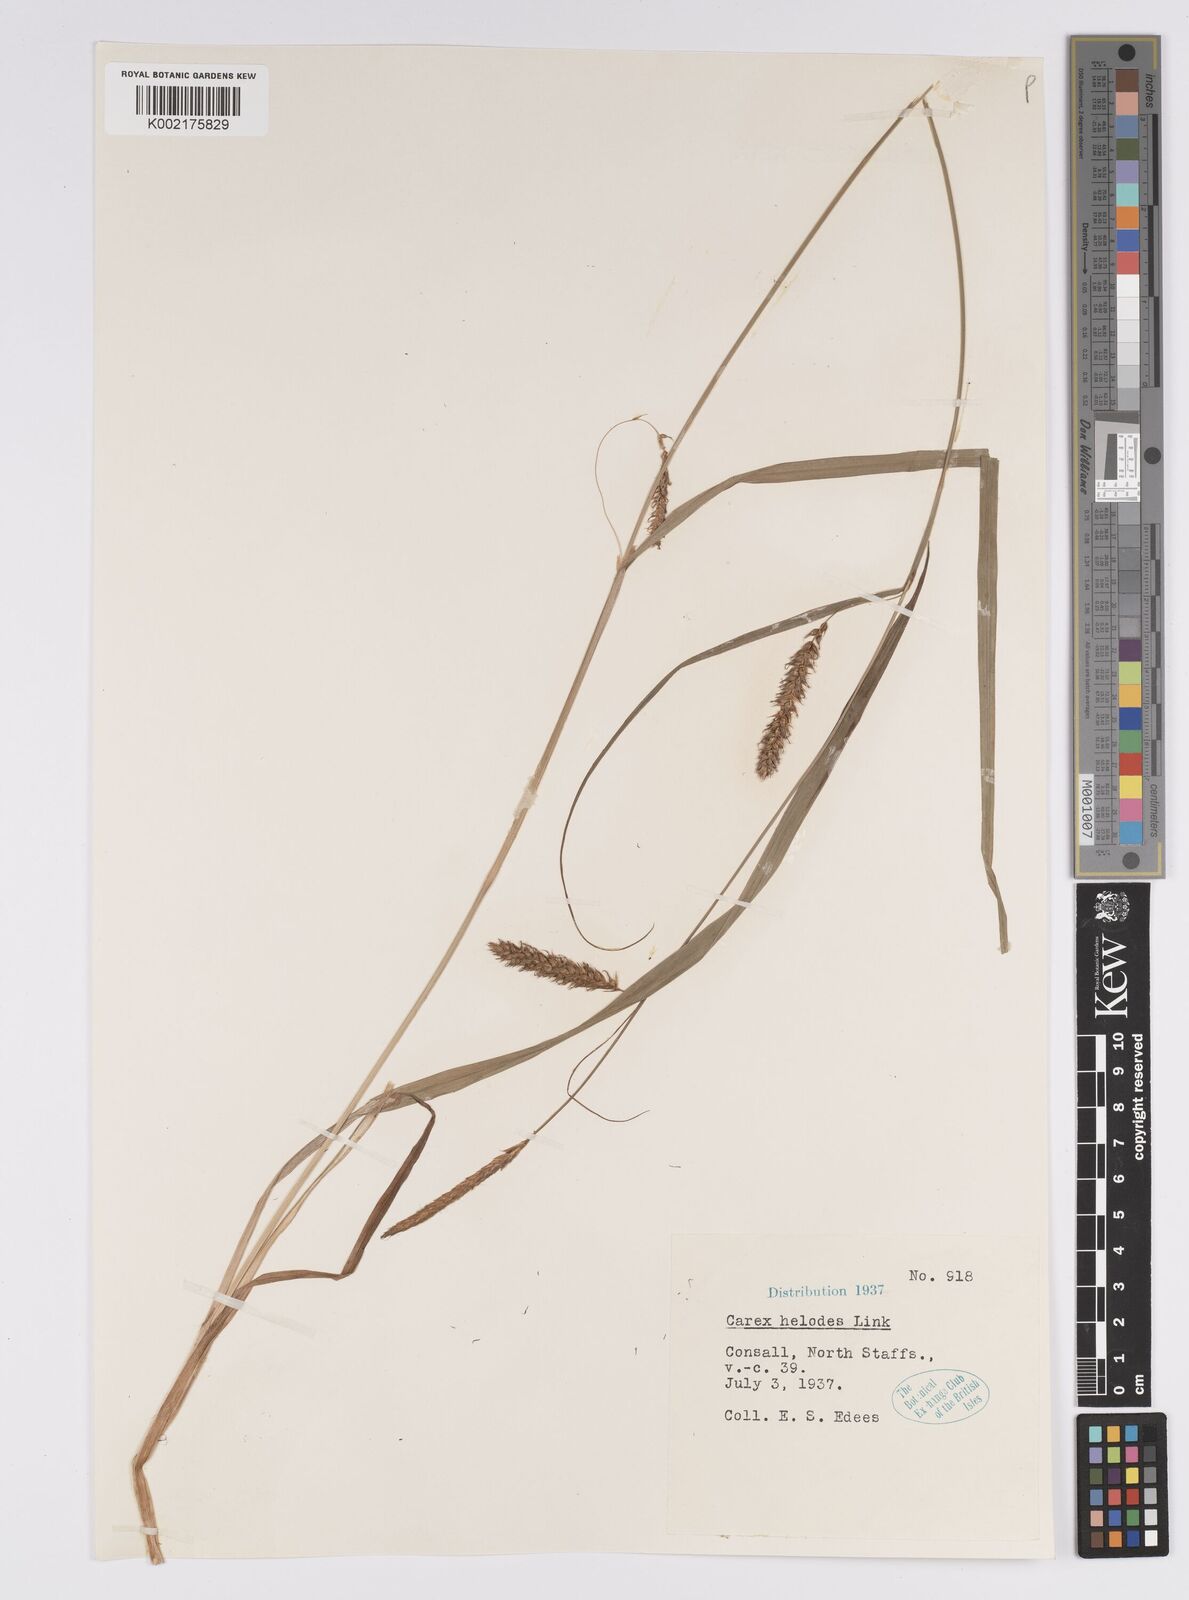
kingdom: Plantae
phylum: Tracheophyta
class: Liliopsida
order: Poales
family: Cyperaceae
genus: Carex
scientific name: Carex laevigata
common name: Smooth-stalked sedge
